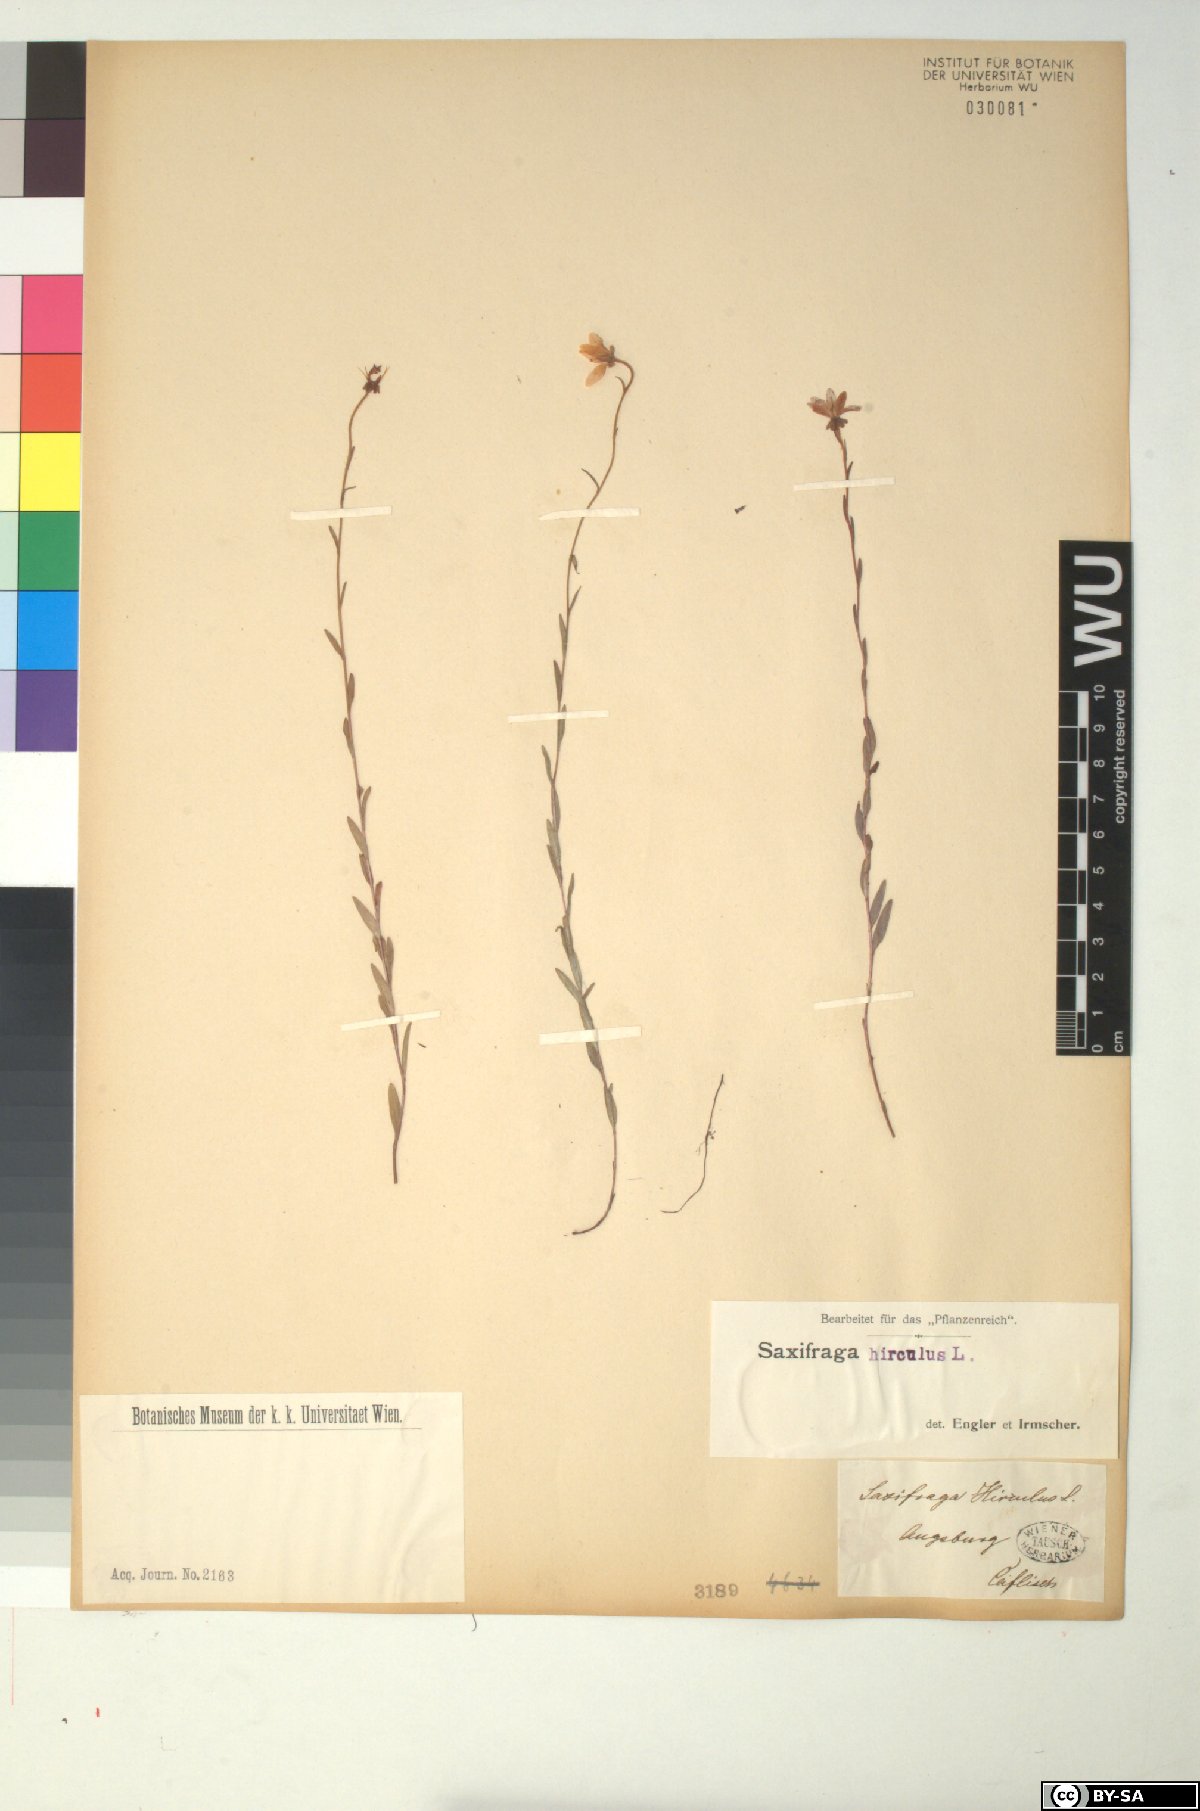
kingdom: Plantae
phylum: Tracheophyta
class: Magnoliopsida
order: Saxifragales
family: Saxifragaceae
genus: Saxifraga
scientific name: Saxifraga hirculus
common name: Yellow marsh saxifrage
